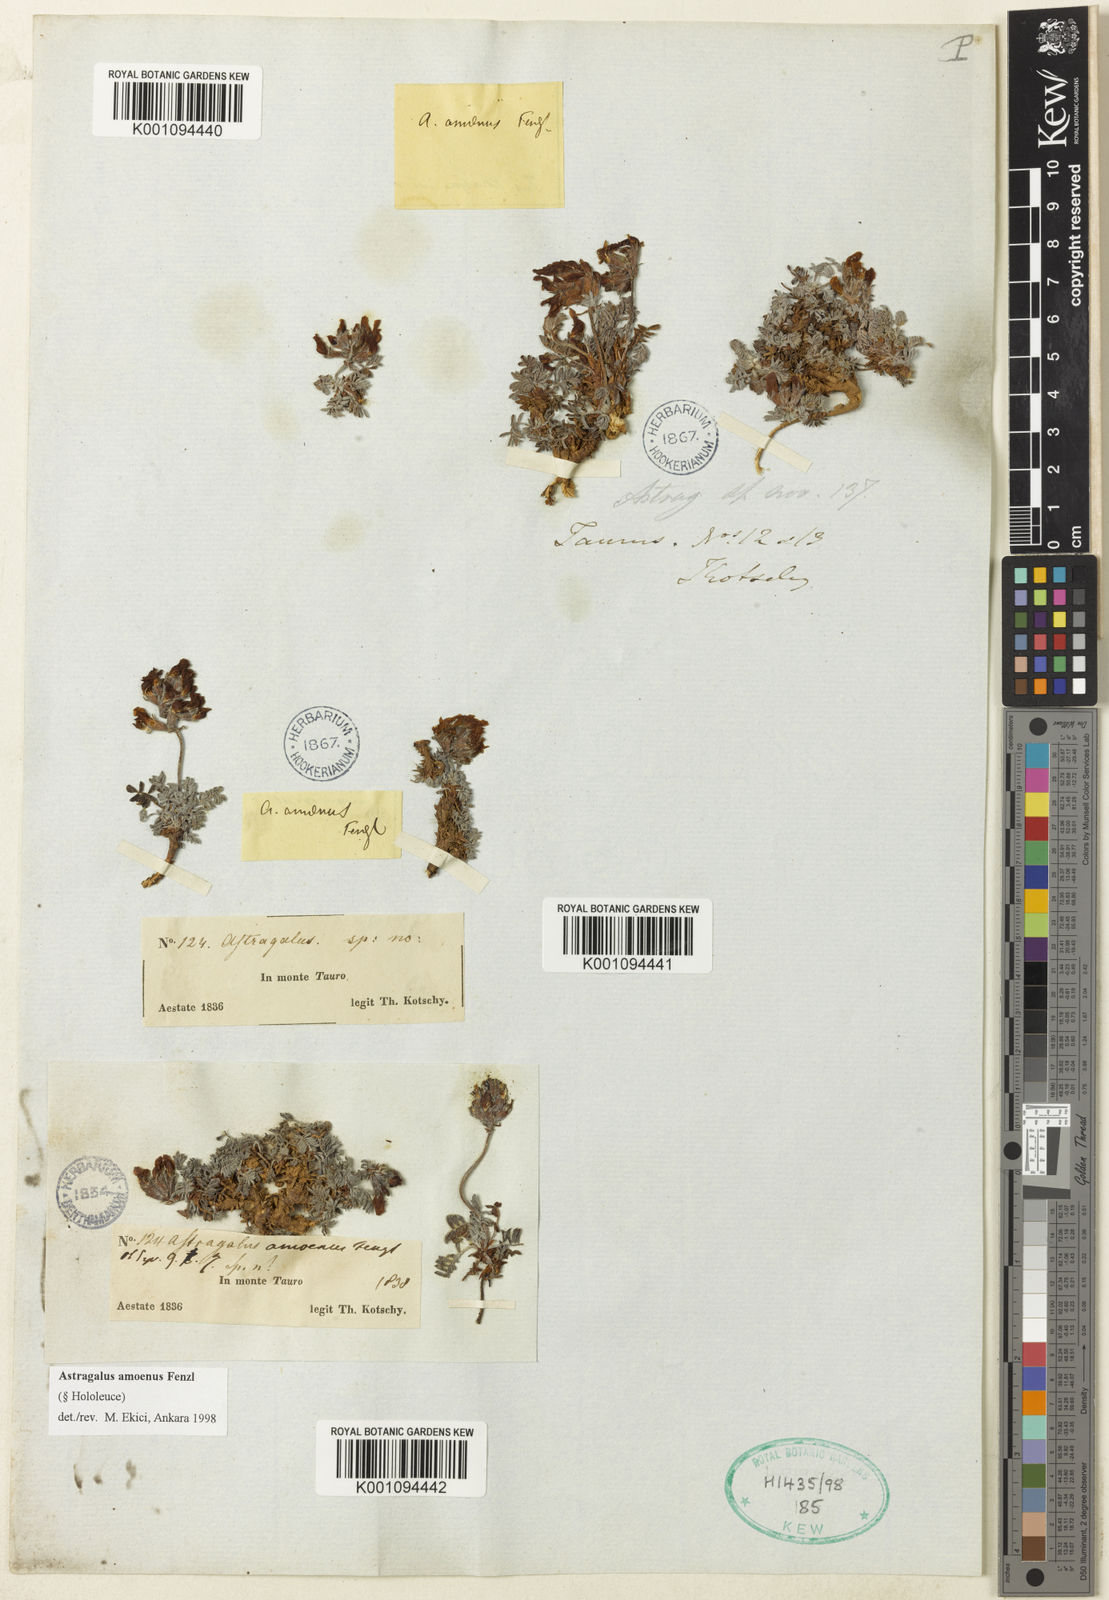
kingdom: Plantae
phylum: Tracheophyta
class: Magnoliopsida
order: Fabales
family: Fabaceae
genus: Astragalus
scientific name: Astragalus
